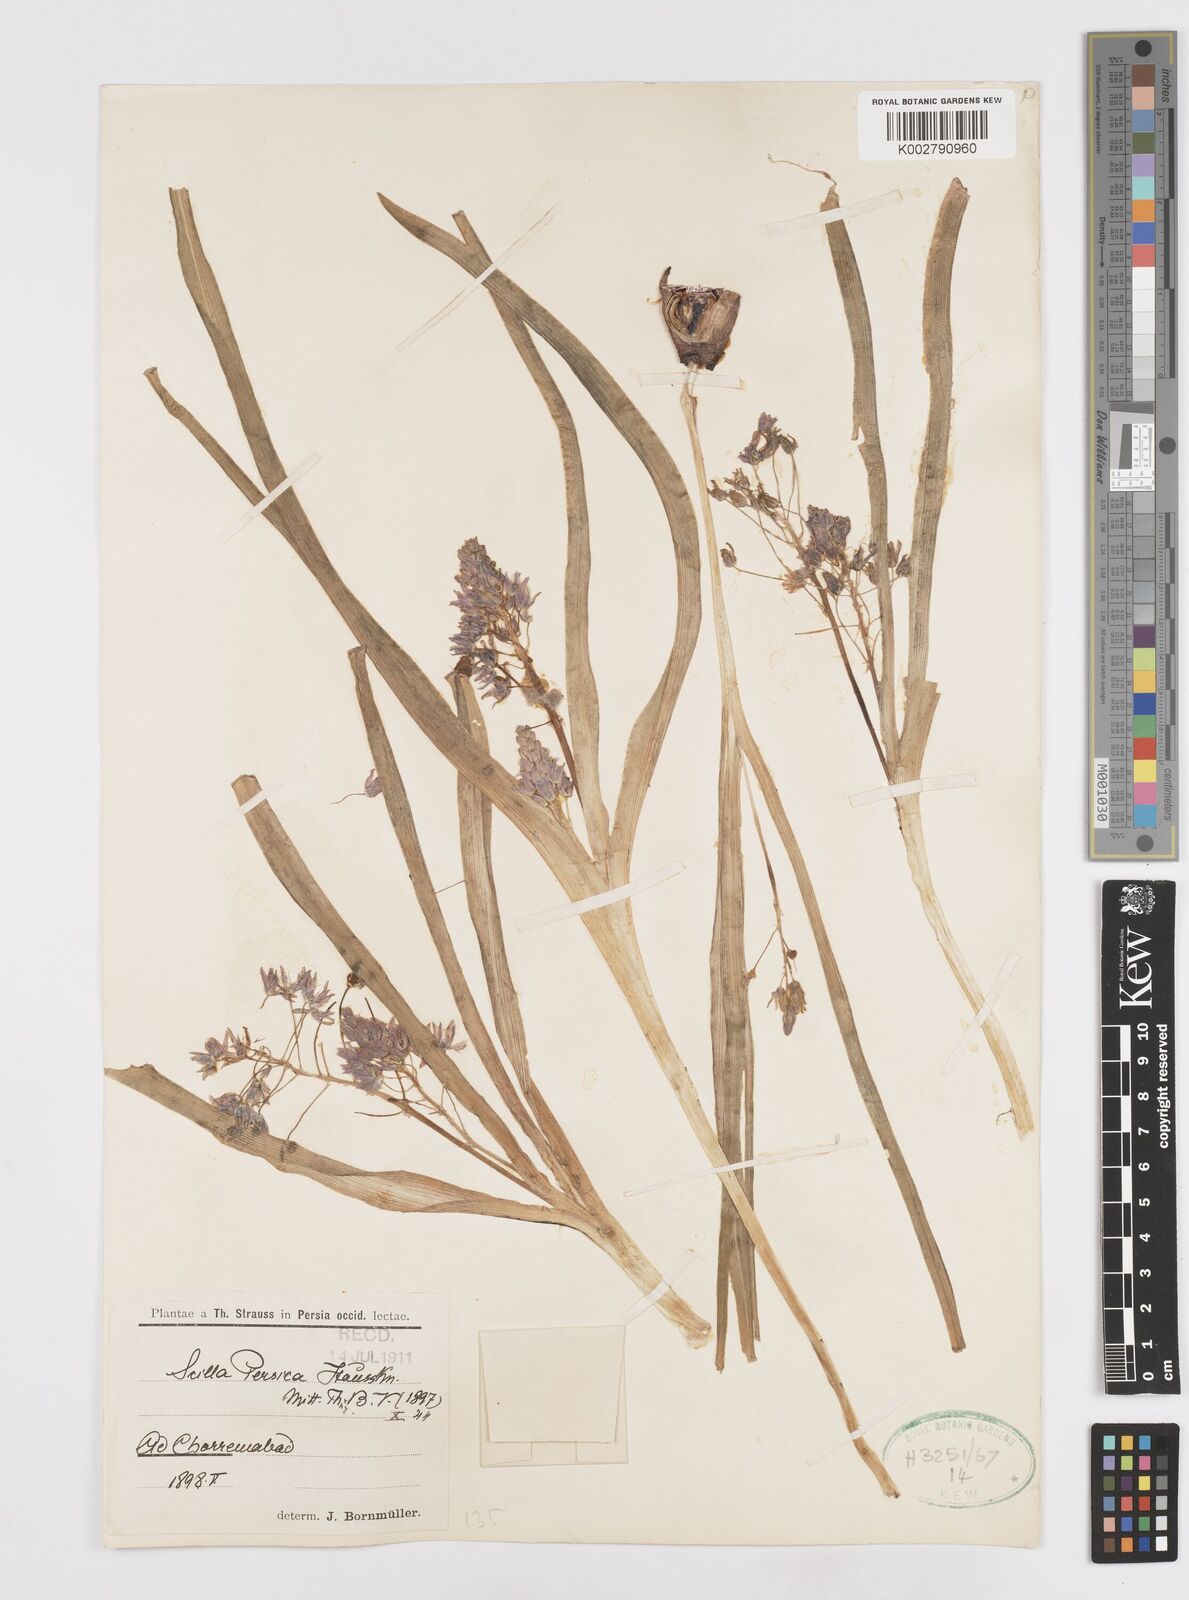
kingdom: Plantae
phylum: Tracheophyta
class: Liliopsida
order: Asparagales
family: Asparagaceae
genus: Zagrosia
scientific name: Zagrosia persica
